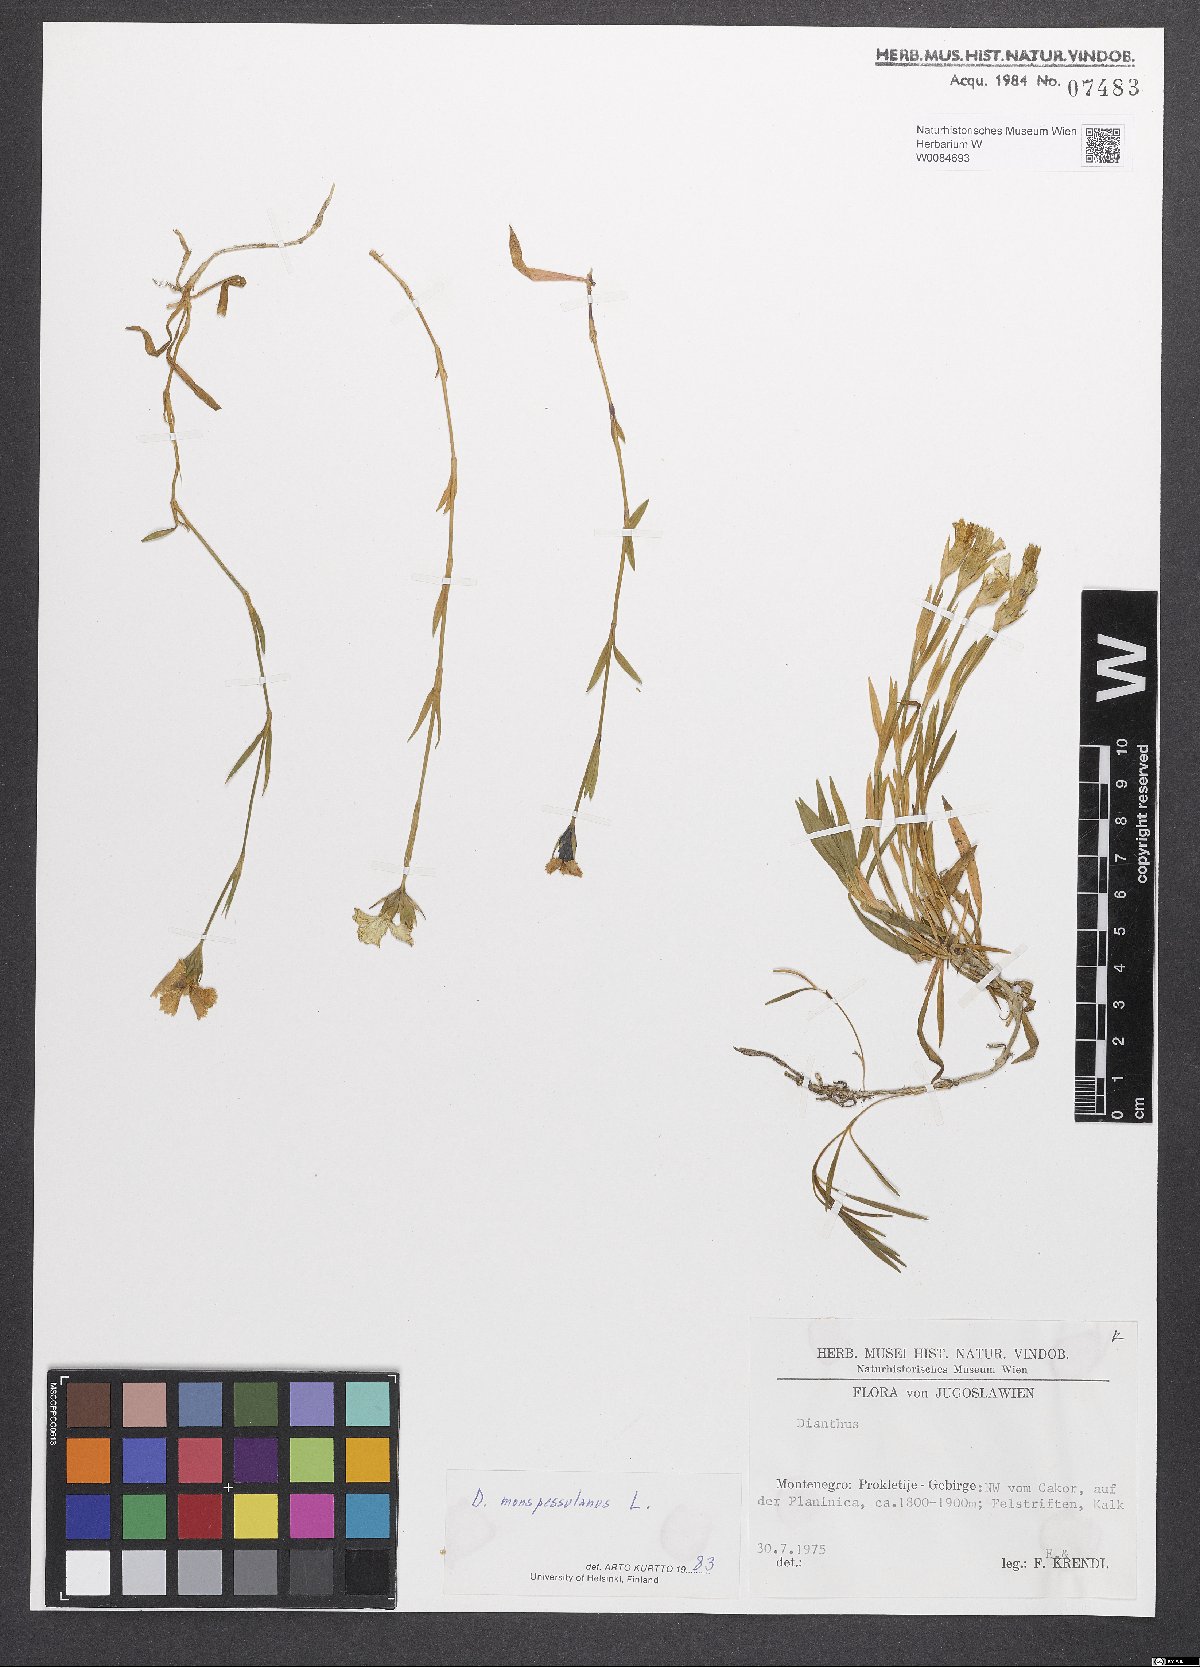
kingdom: Plantae
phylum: Tracheophyta
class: Magnoliopsida
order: Caryophyllales
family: Caryophyllaceae
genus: Dianthus
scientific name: Dianthus hyssopifolius
